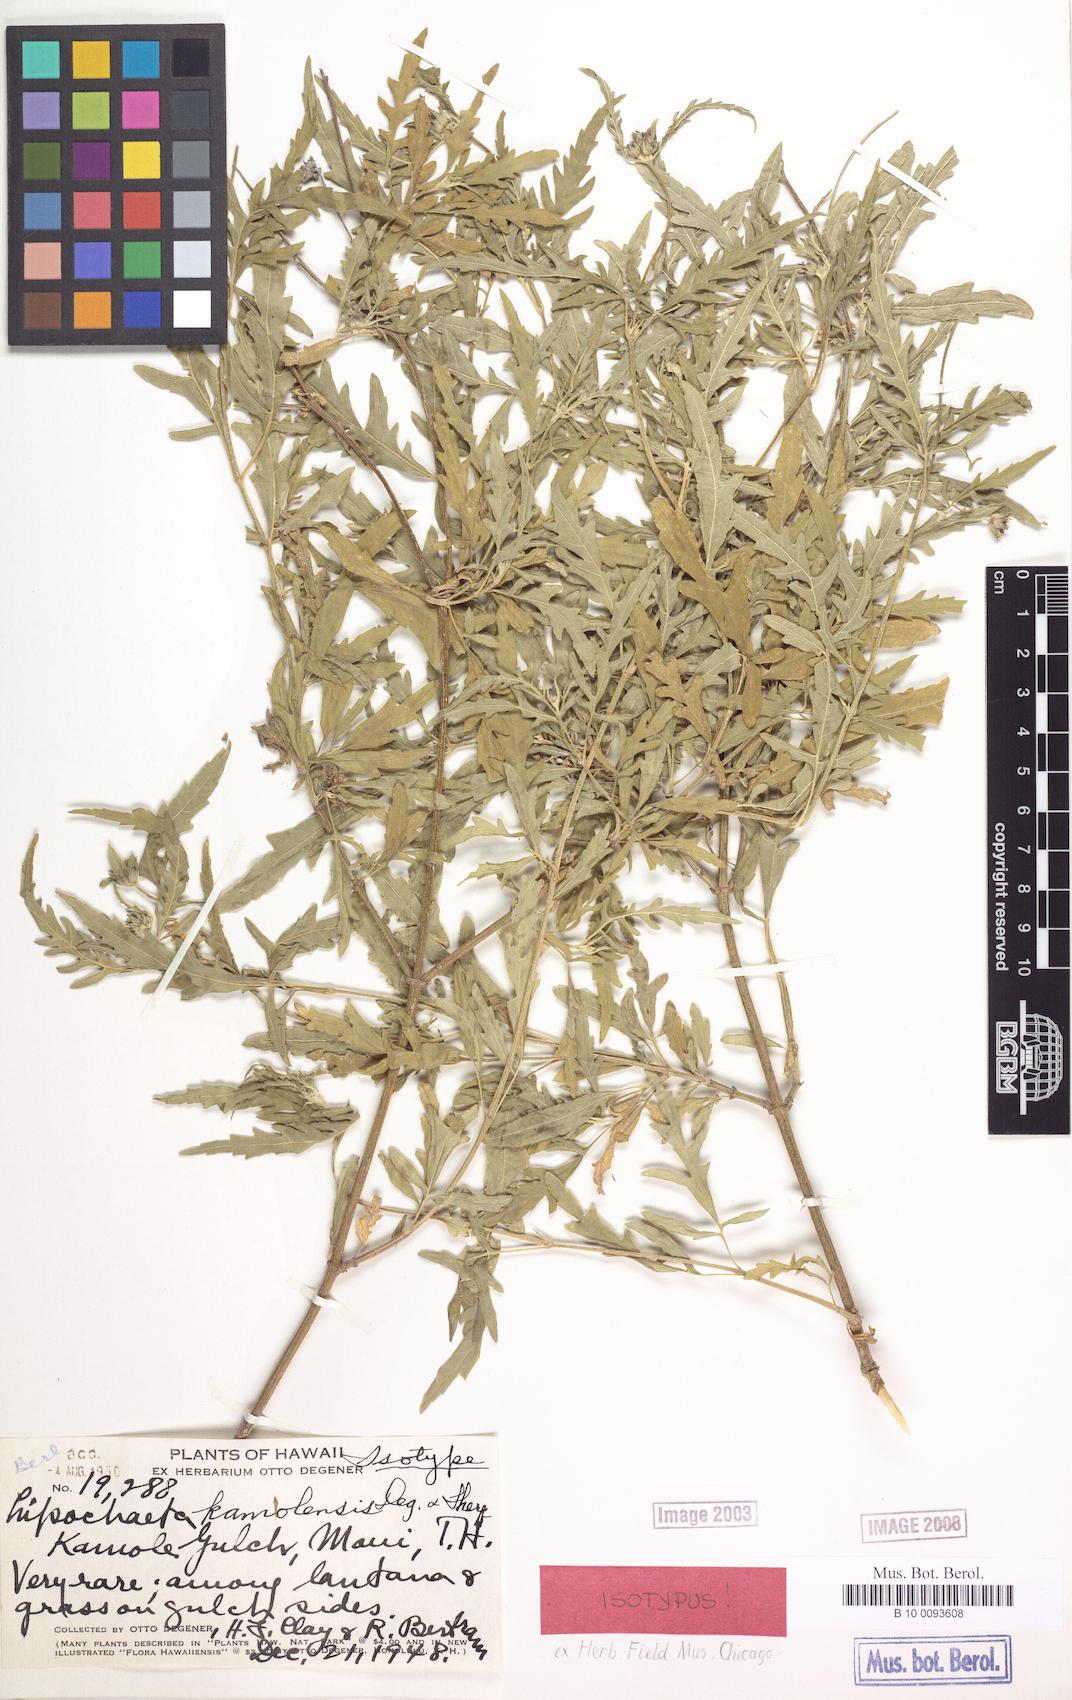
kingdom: Plantae
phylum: Tracheophyta
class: Magnoliopsida
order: Asterales
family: Asteraceae
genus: Lipochaeta
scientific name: Lipochaeta kamolensis
